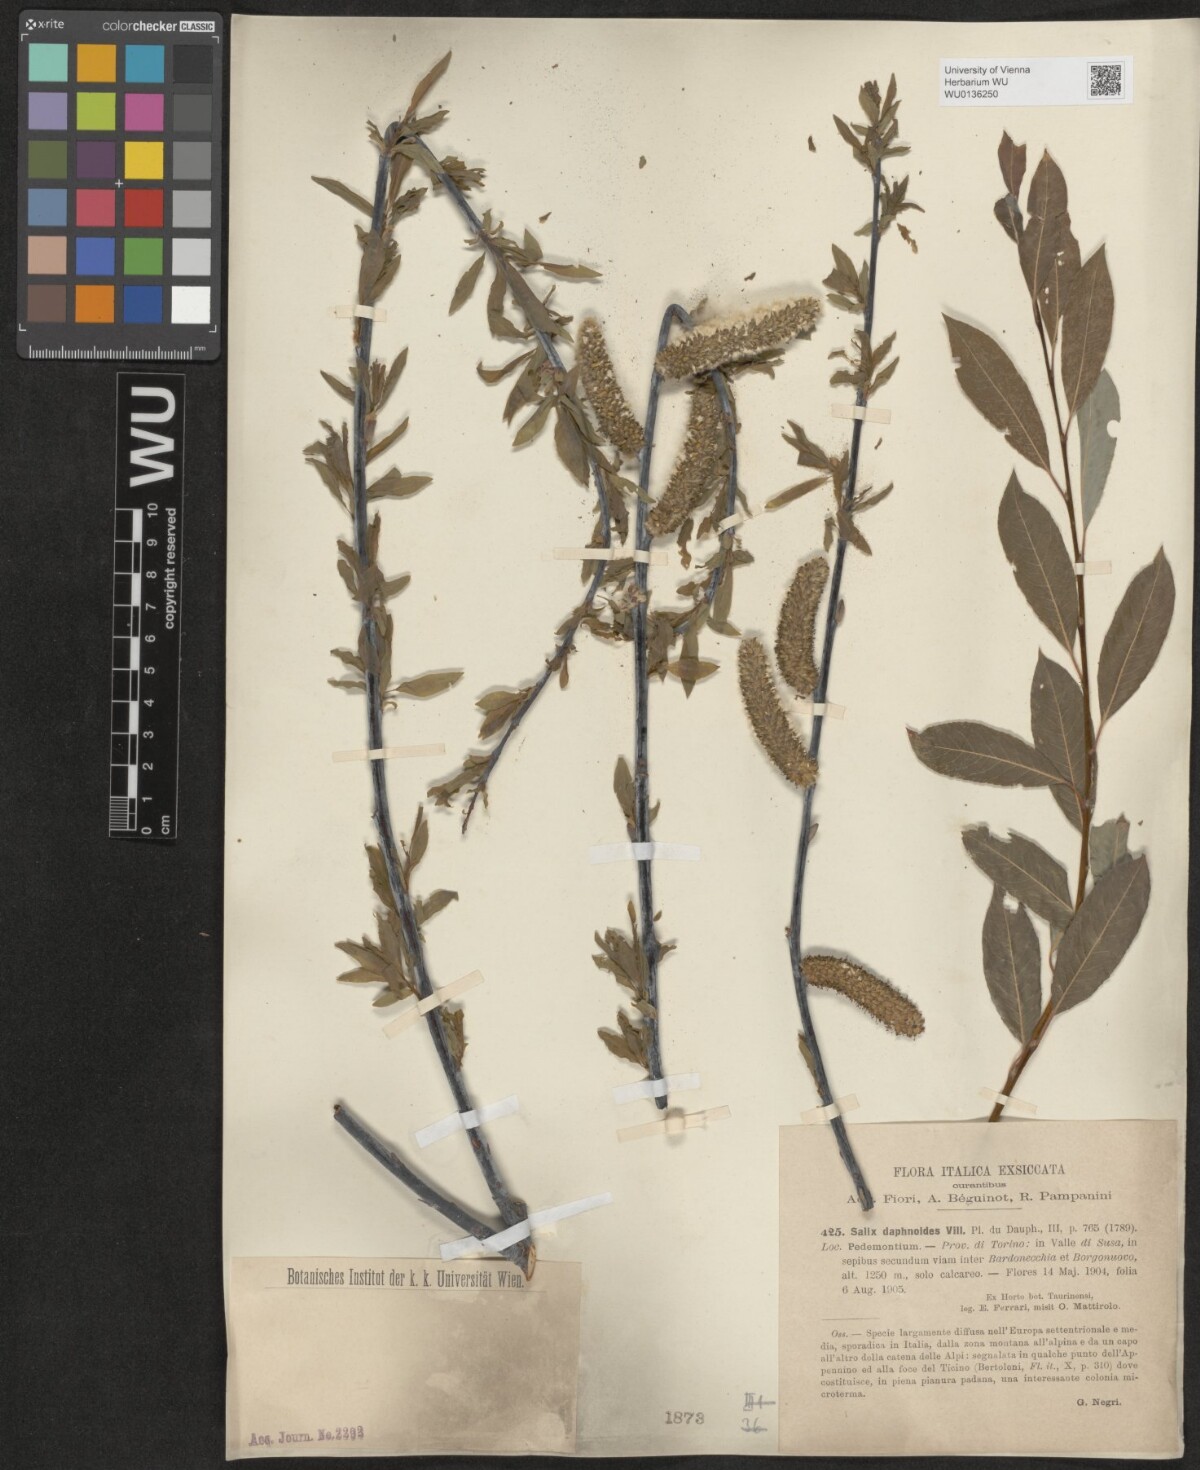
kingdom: Plantae
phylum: Tracheophyta
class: Magnoliopsida
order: Malpighiales
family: Salicaceae
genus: Salix
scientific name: Salix daphnoides
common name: European violet-willow
